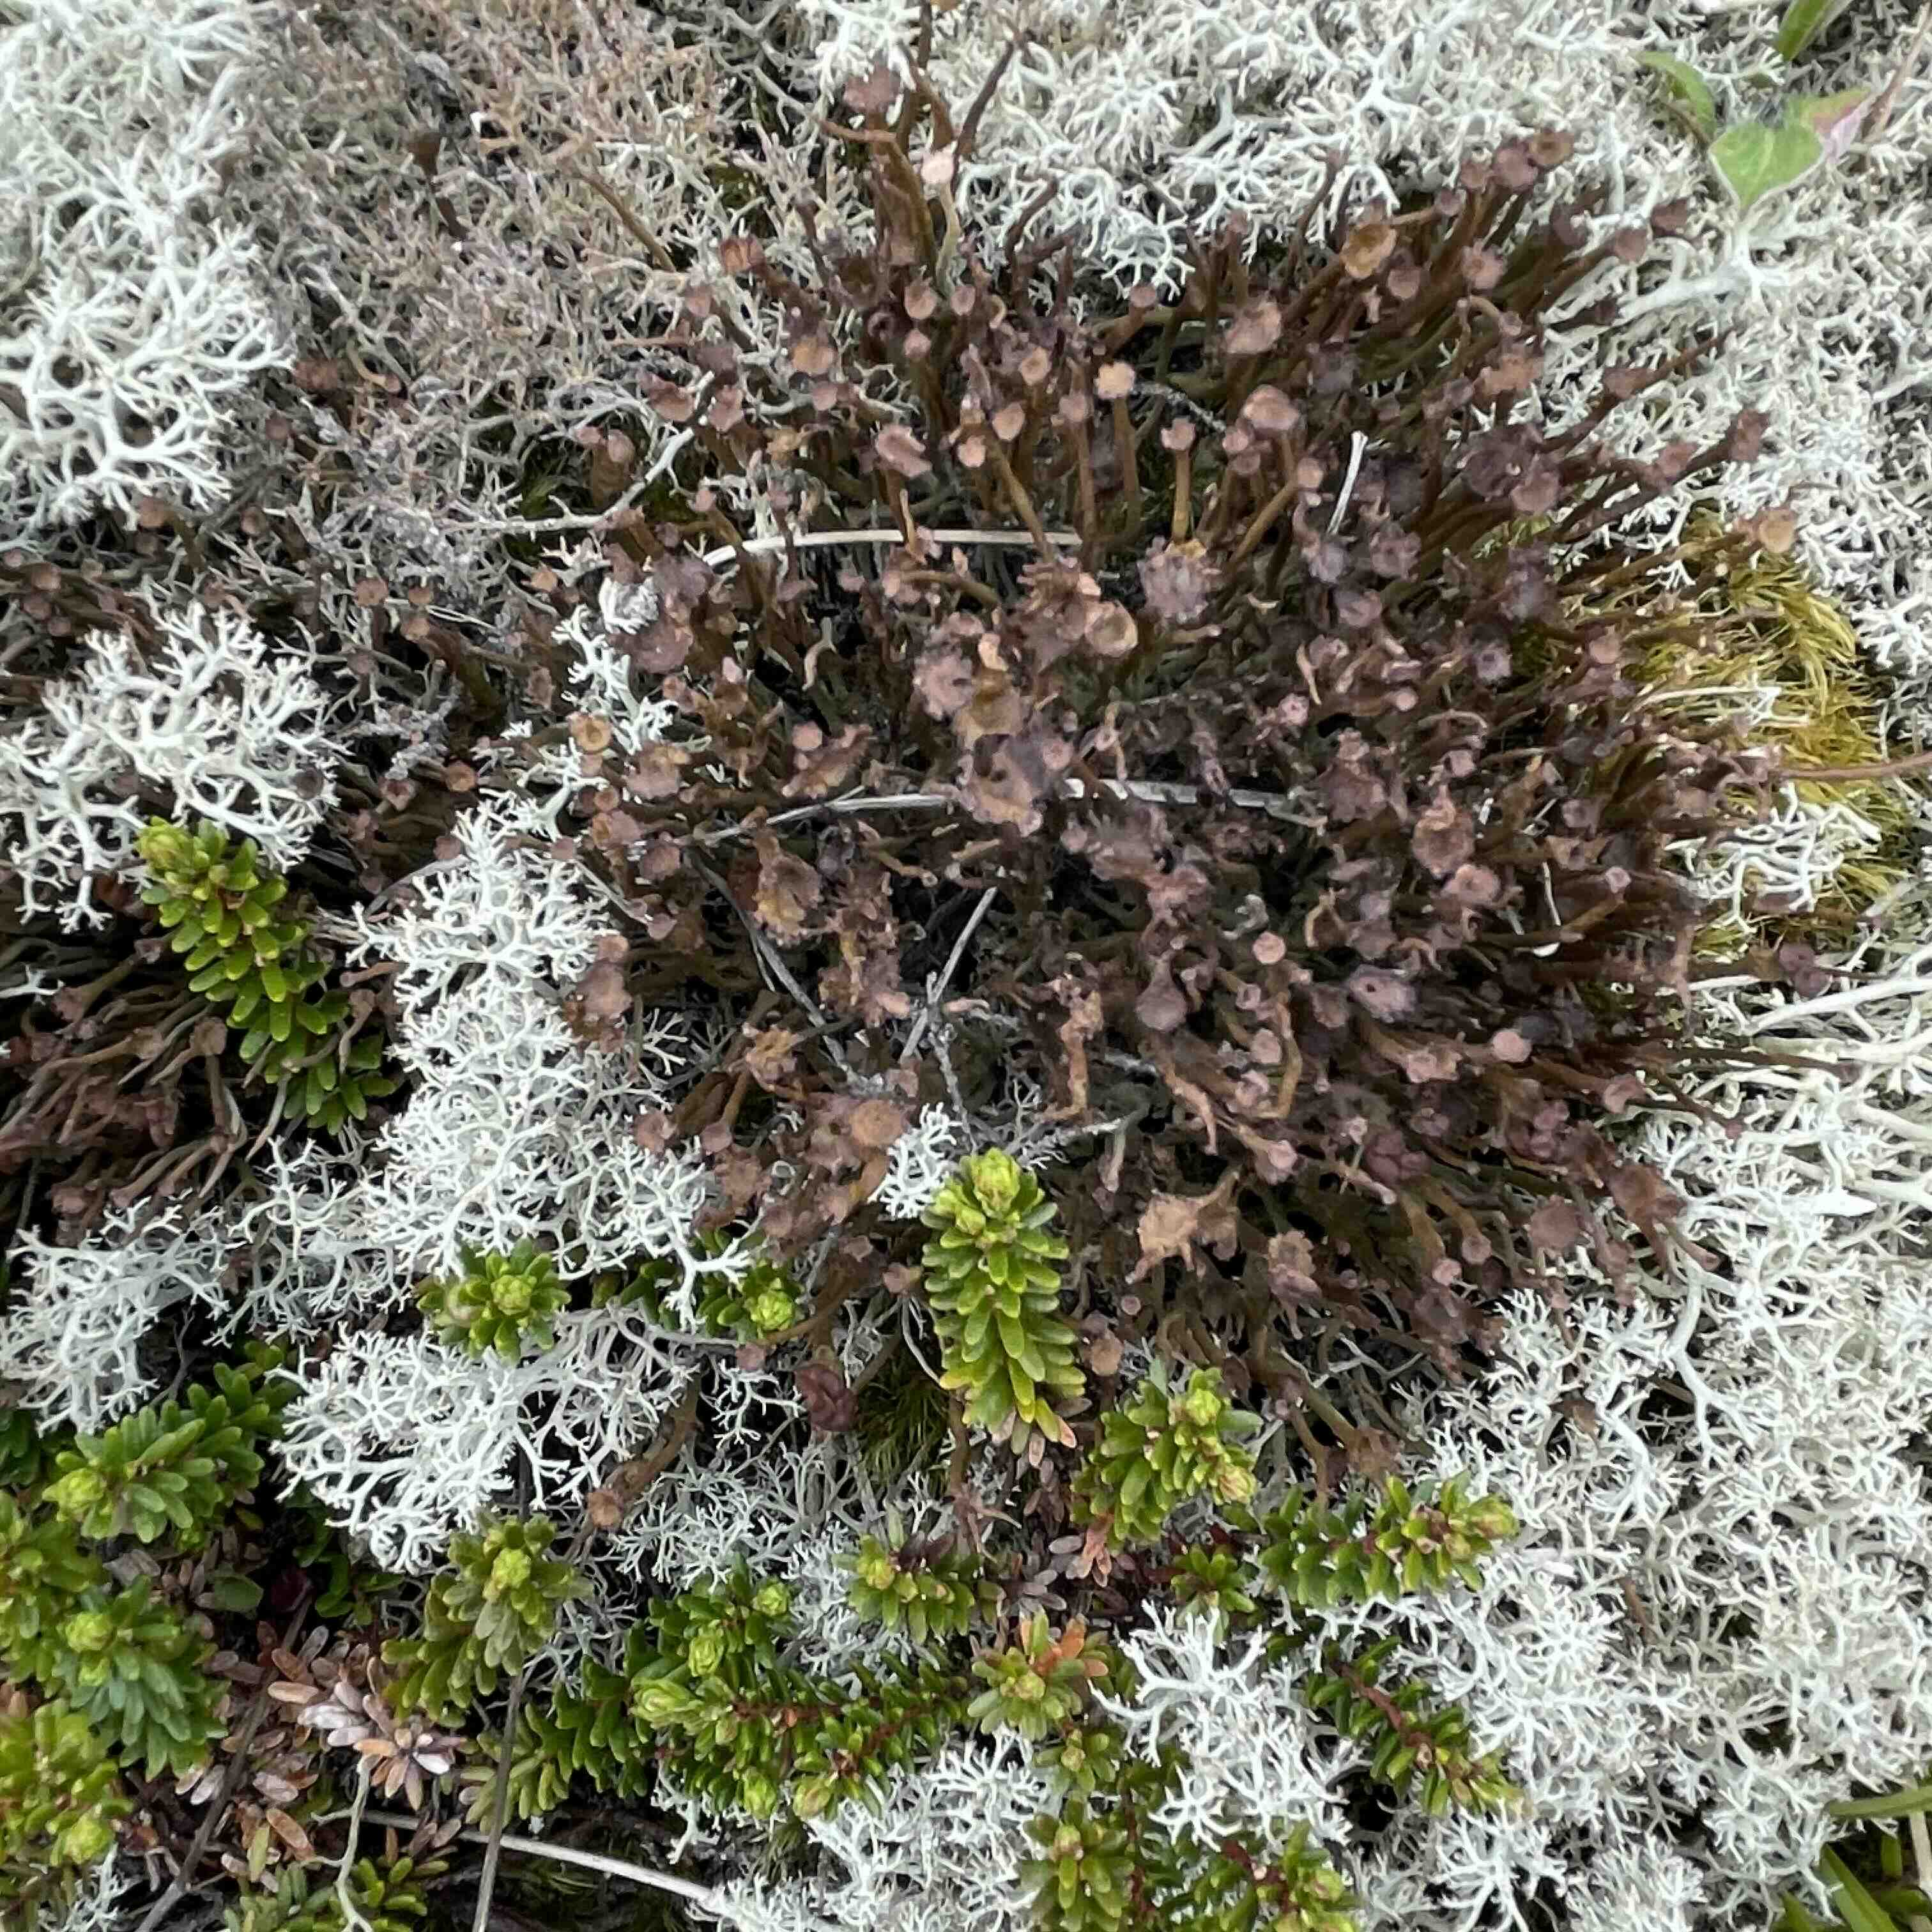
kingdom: Fungi
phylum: Ascomycota
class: Lecanoromycetes
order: Lecanorales
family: Cladoniaceae
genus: Cladonia
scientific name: Cladonia gracilis
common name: slank bægerlav
